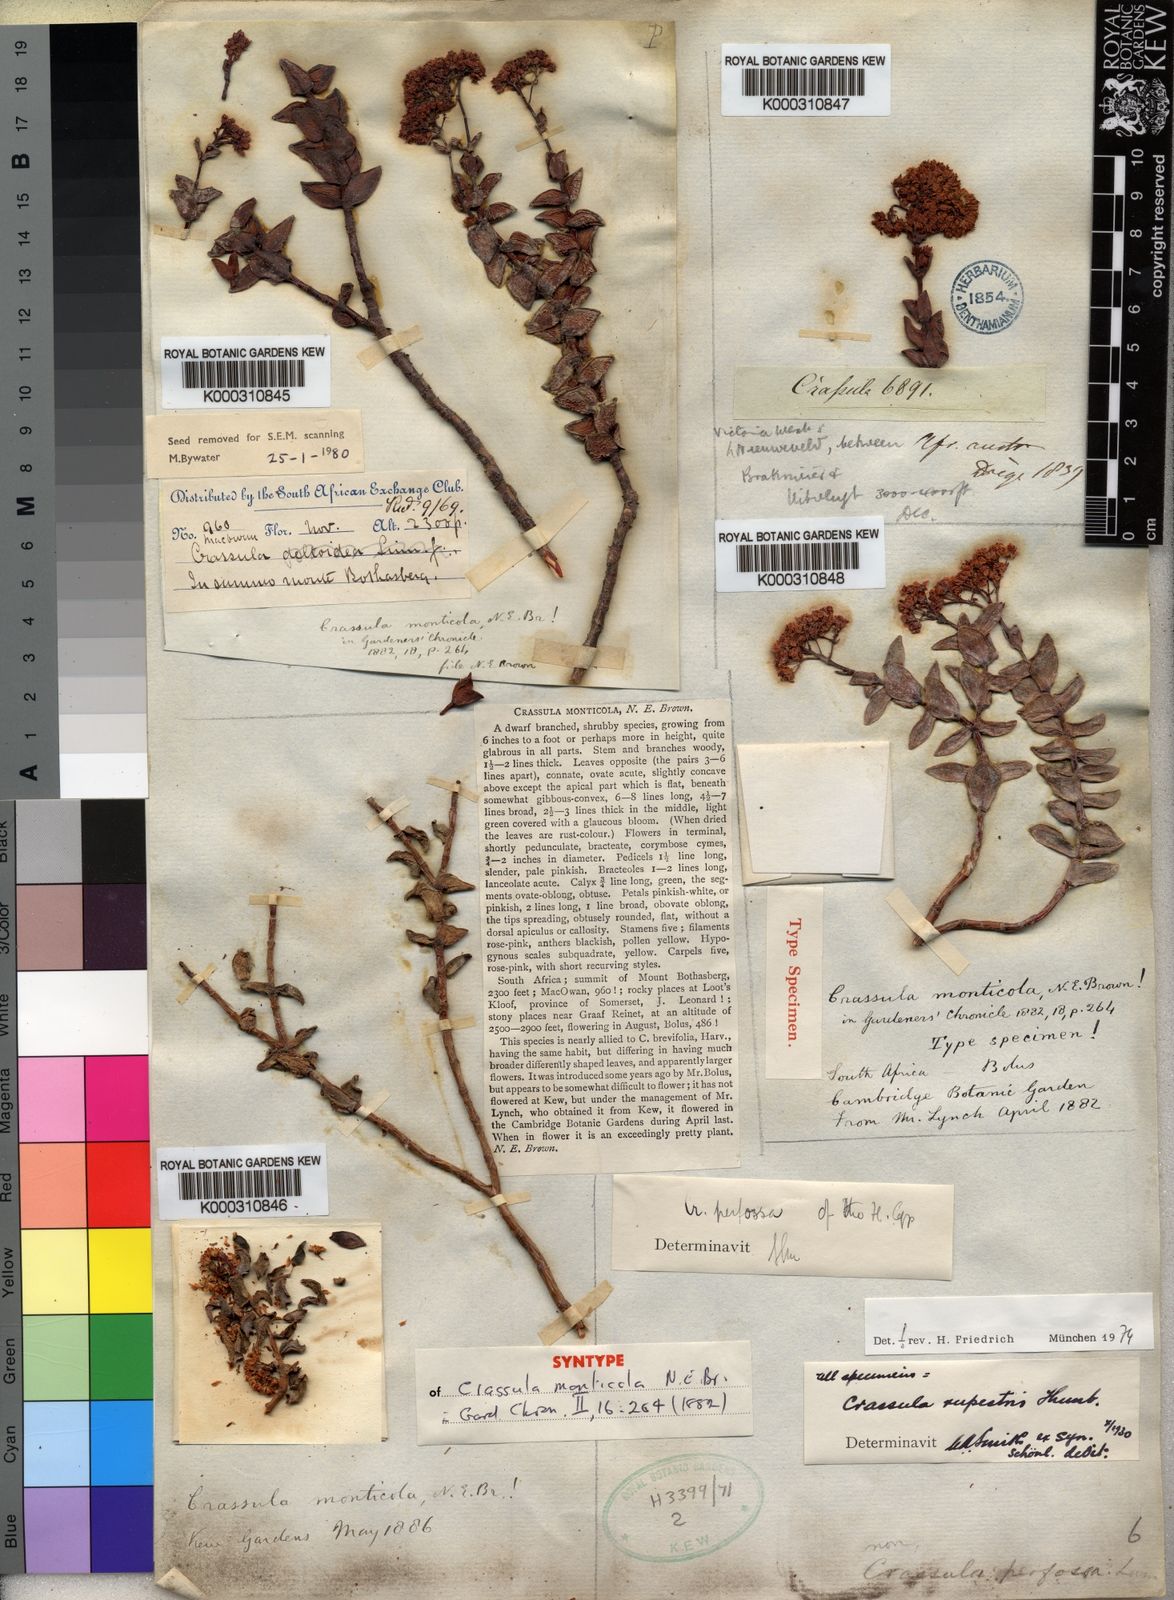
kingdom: Plantae
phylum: Tracheophyta
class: Magnoliopsida
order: Saxifragales
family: Crassulaceae
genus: Crassula
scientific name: Crassula
